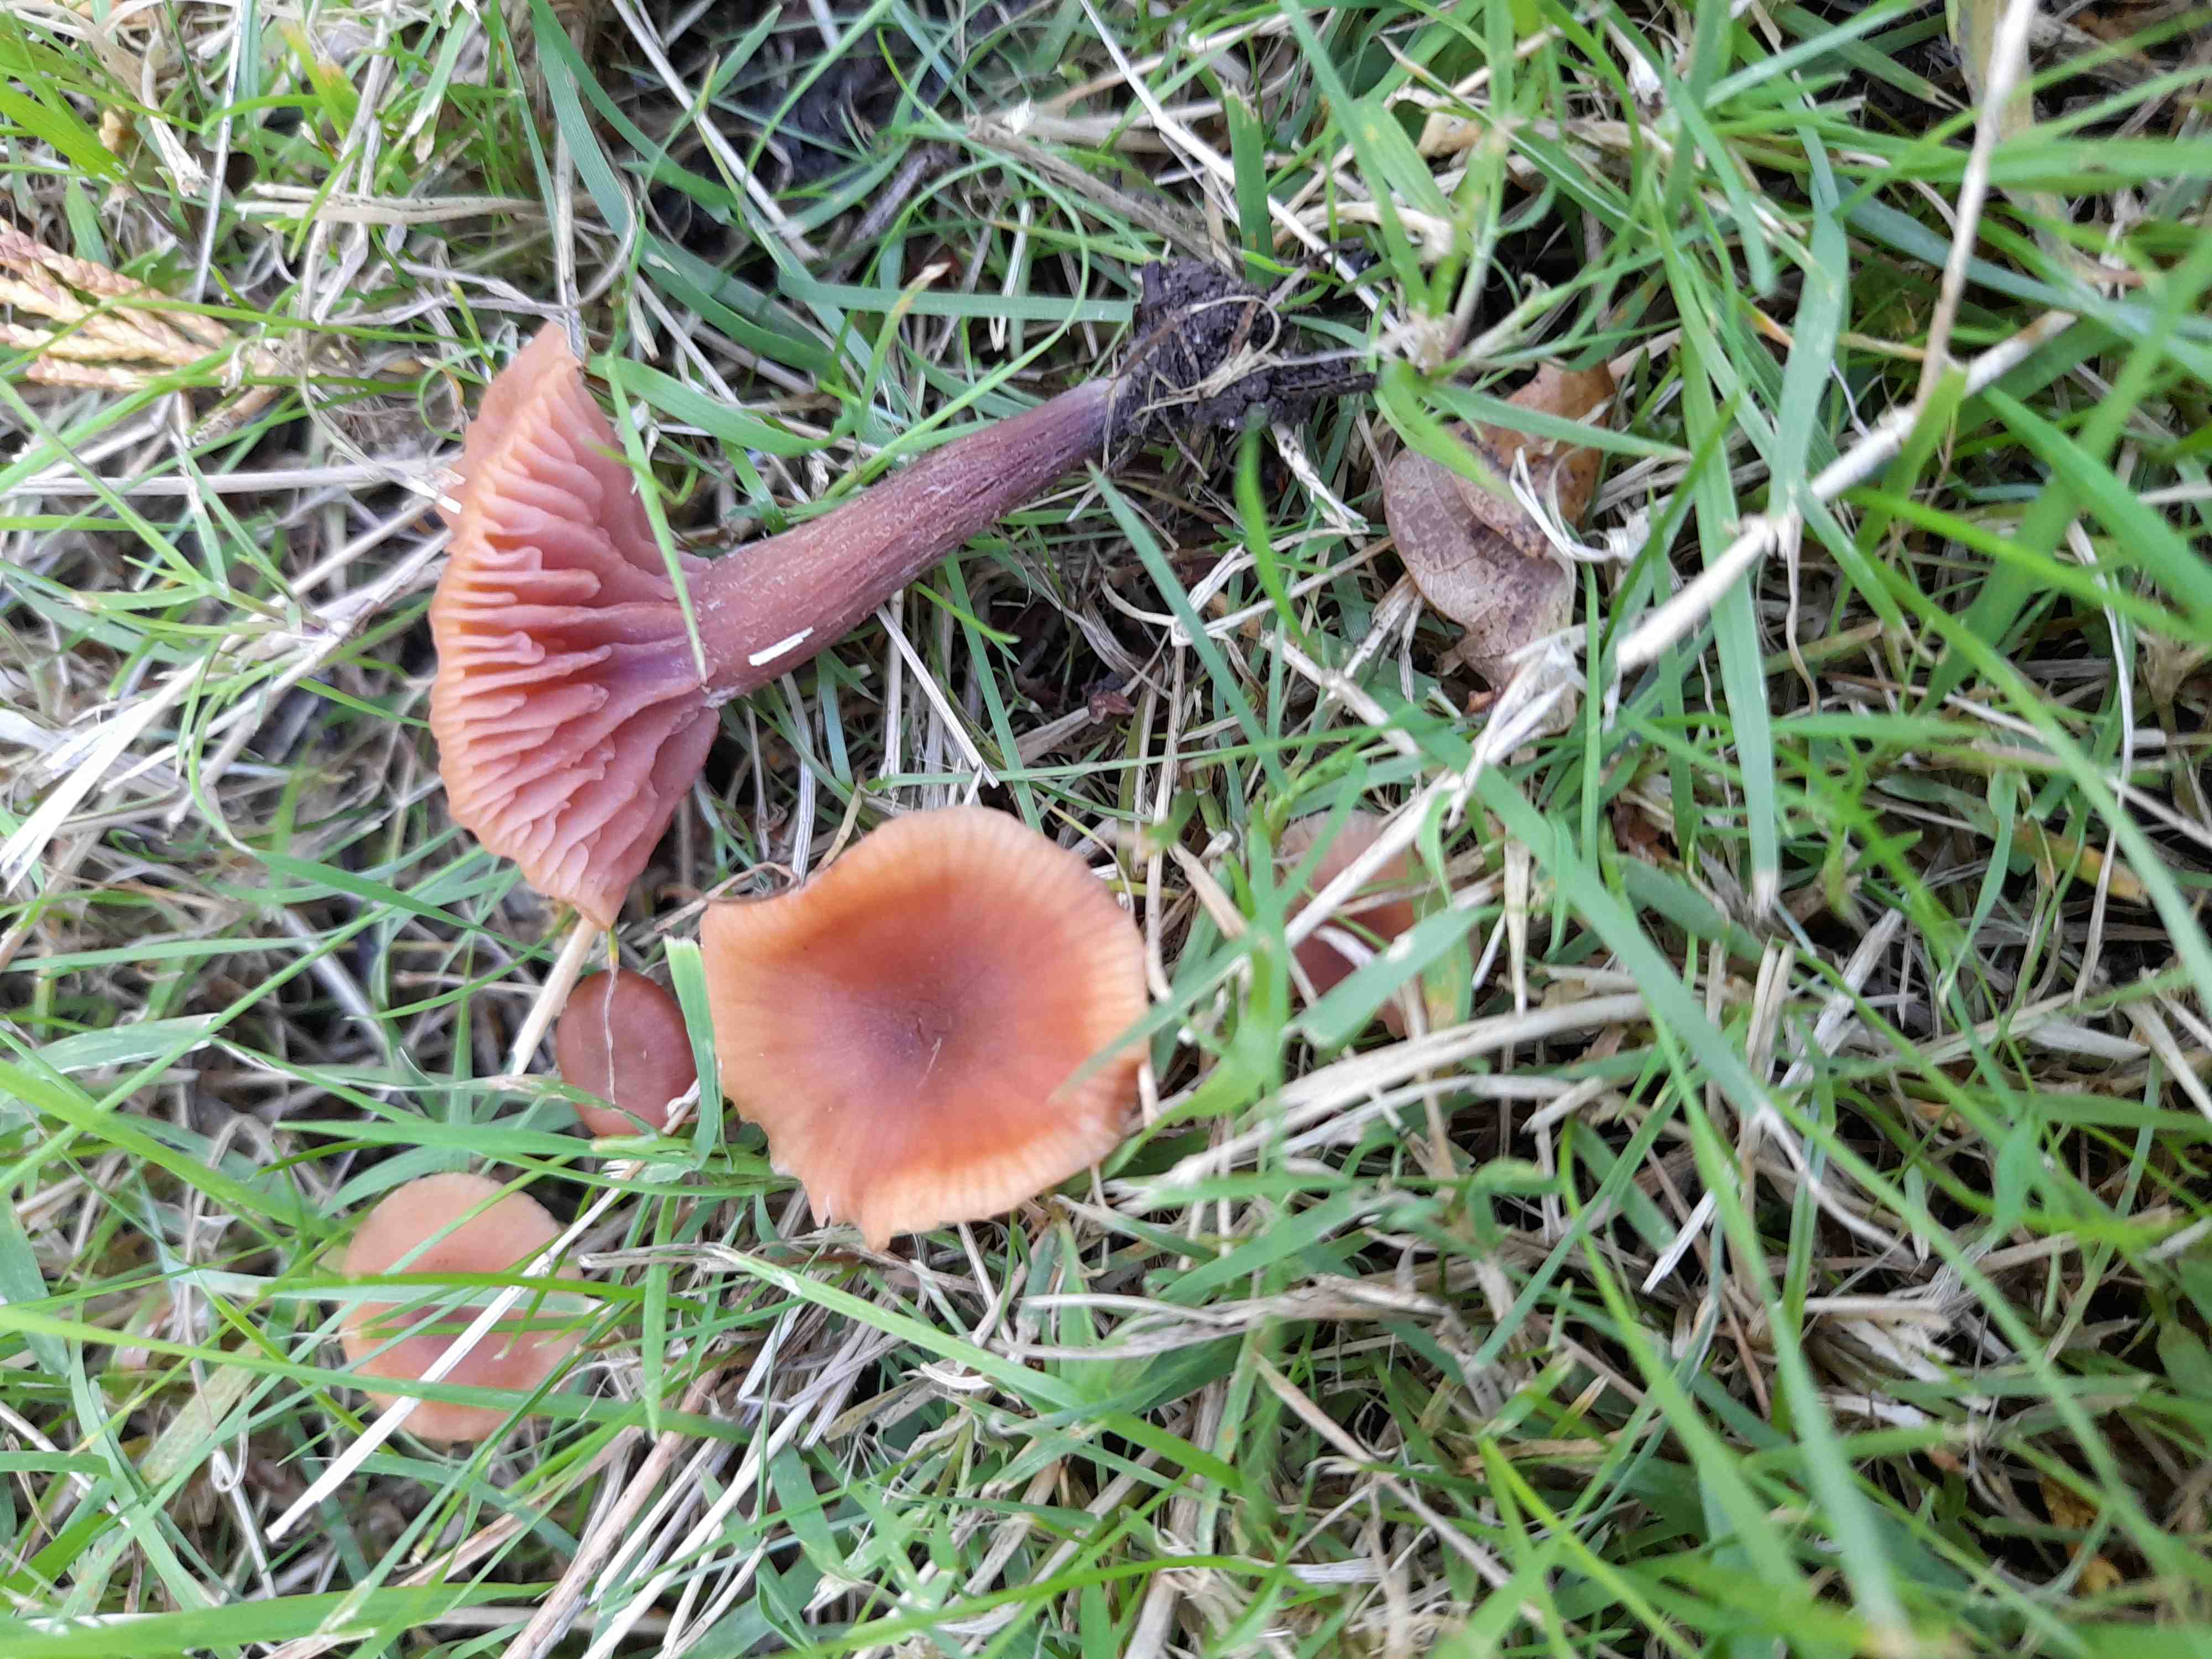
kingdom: Fungi
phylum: Basidiomycota
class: Agaricomycetes
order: Agaricales
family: Hydnangiaceae
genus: Laccaria
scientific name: Laccaria laccata
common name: rød ametysthat
